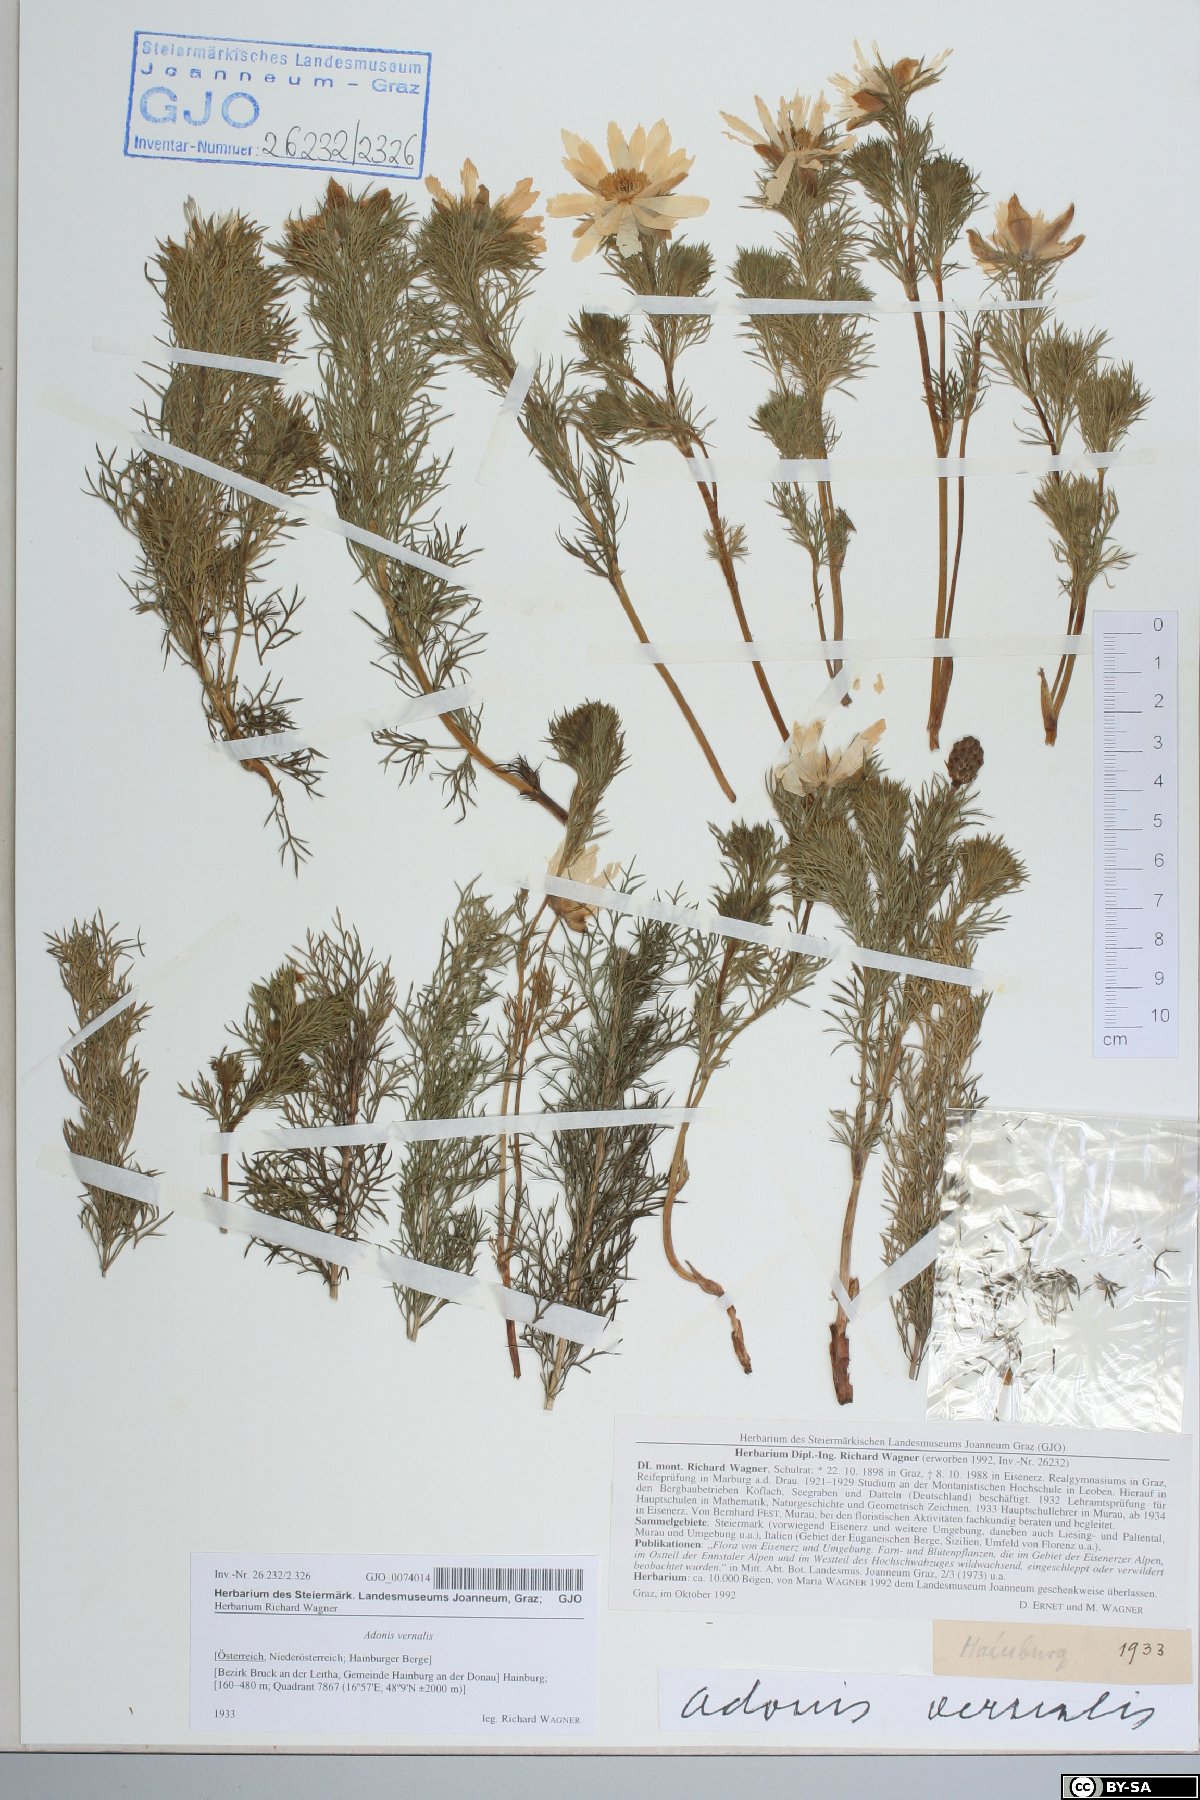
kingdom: Plantae
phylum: Tracheophyta
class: Magnoliopsida
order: Ranunculales
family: Ranunculaceae
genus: Adonis
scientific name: Adonis vernalis
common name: Yellow pheasants-eye
